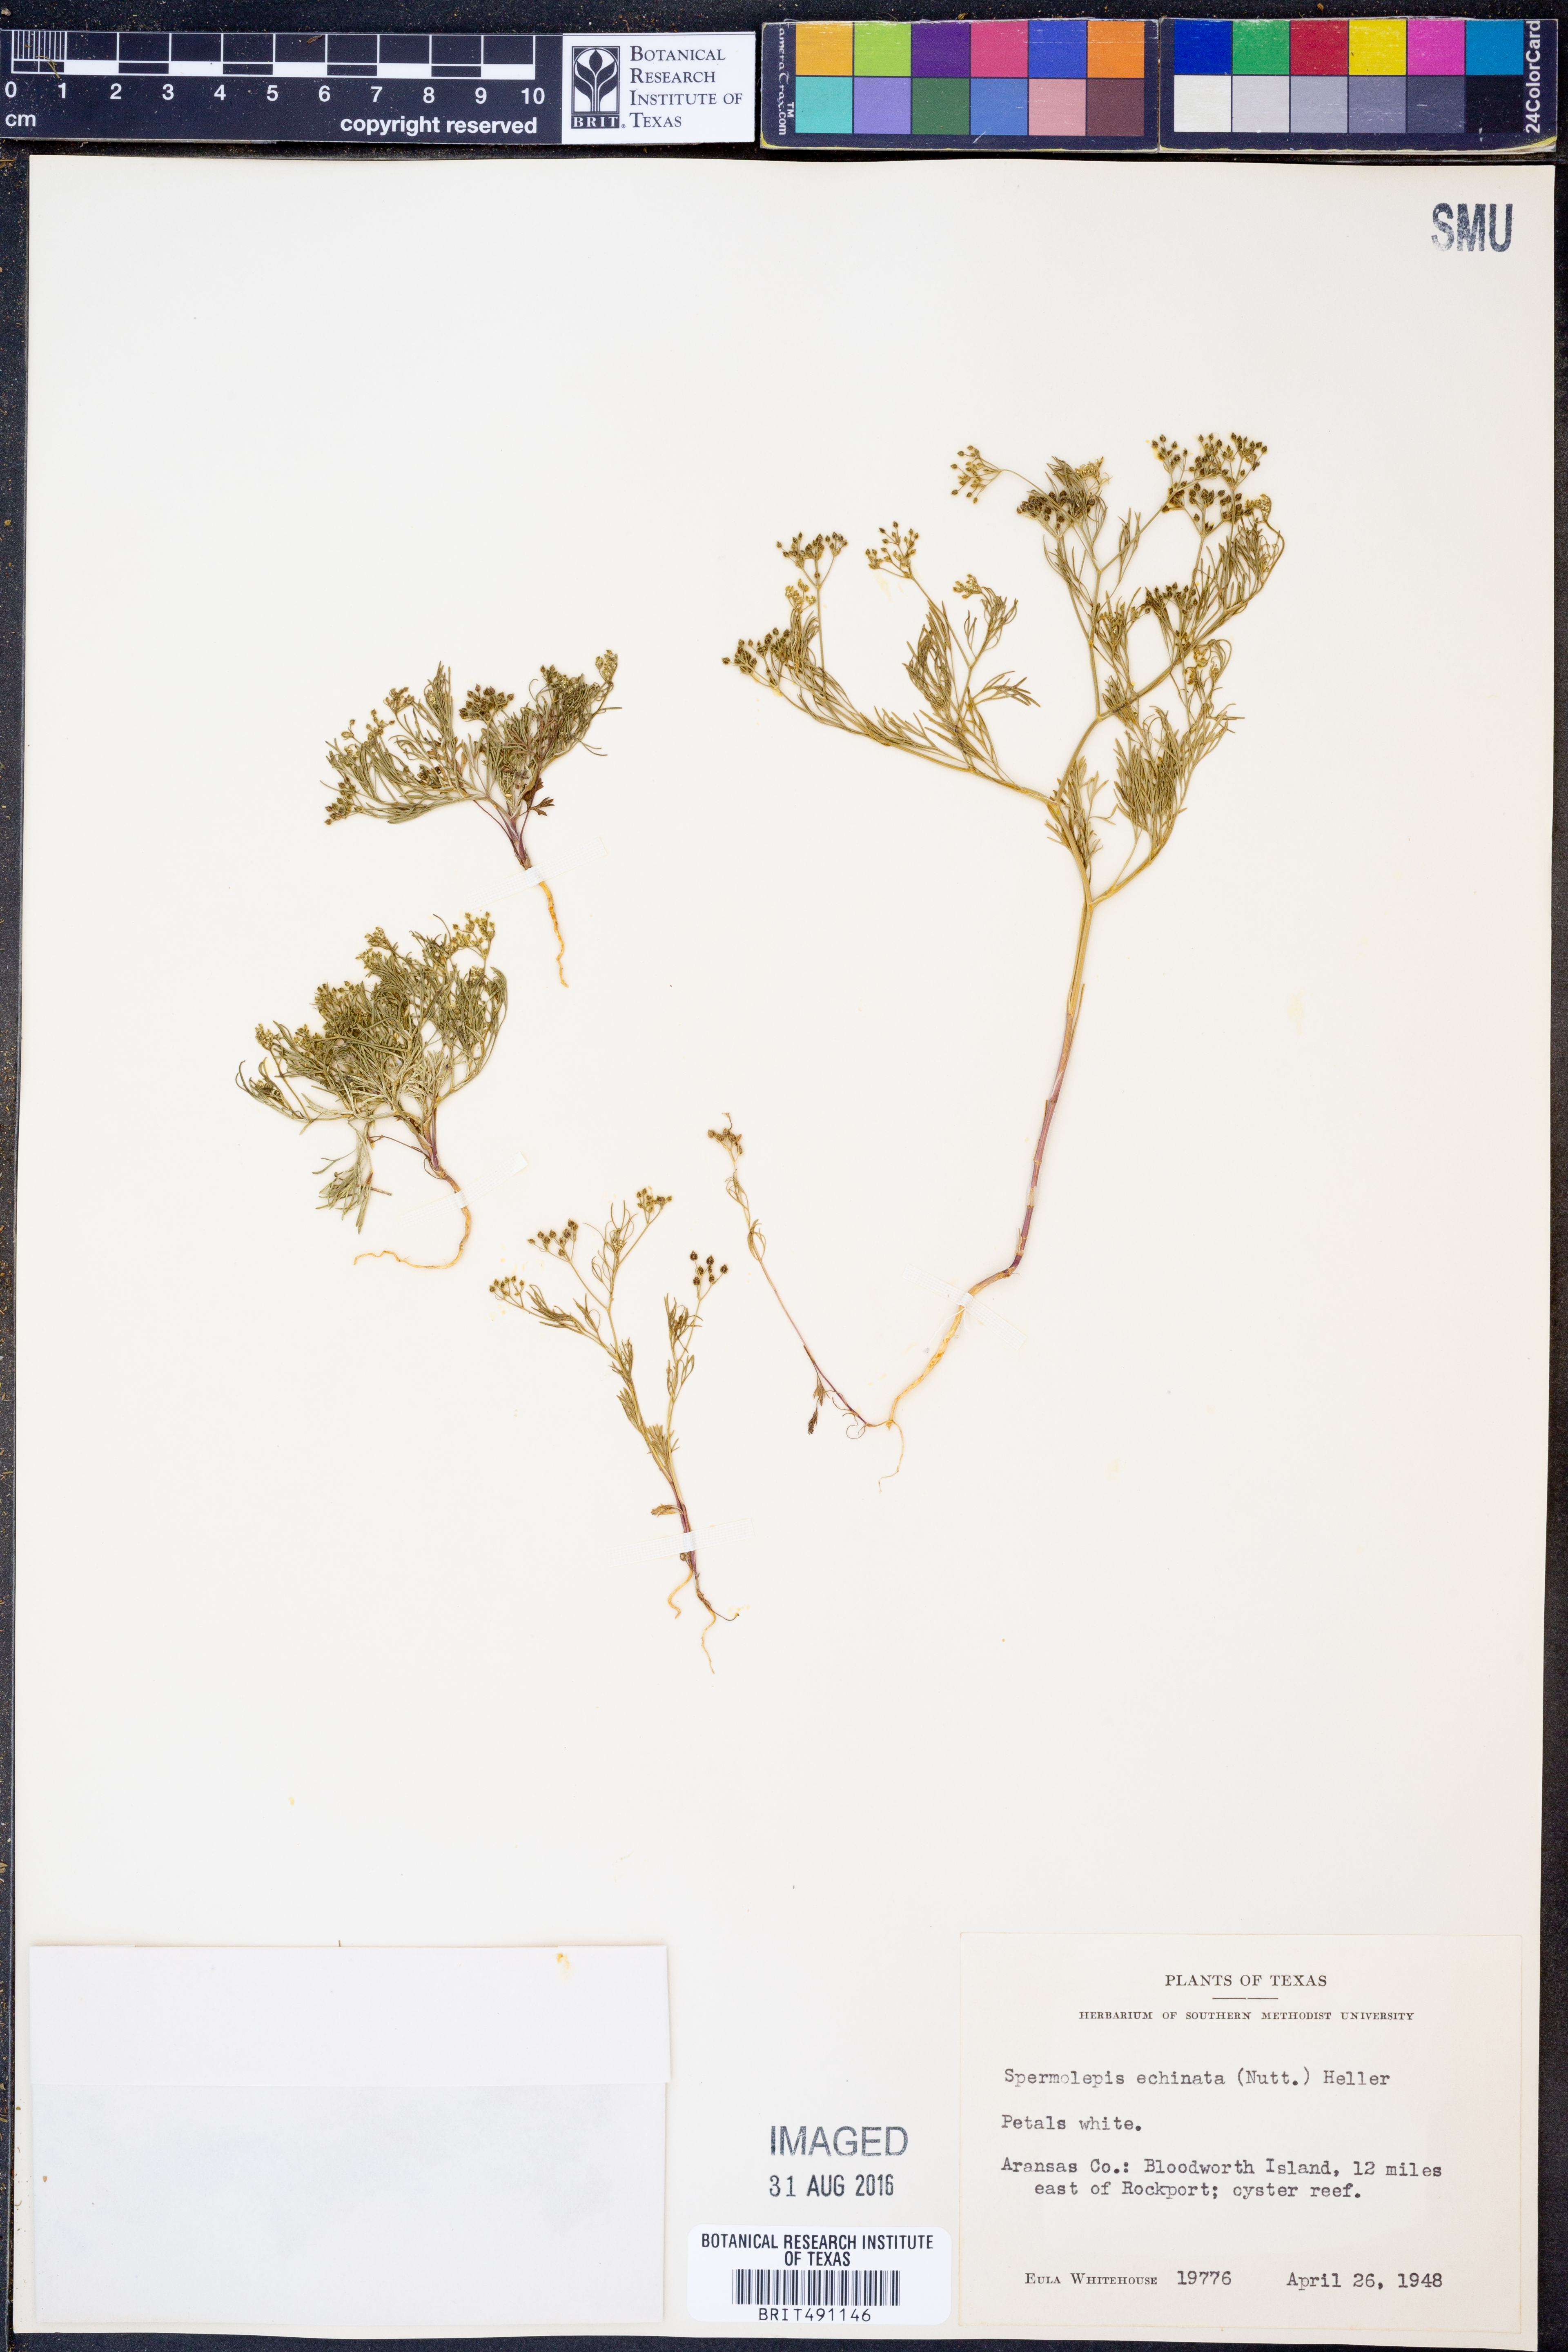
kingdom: Plantae
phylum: Tracheophyta
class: Magnoliopsida
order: Apiales
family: Apiaceae
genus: Spermolepis
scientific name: Spermolepis echinata
